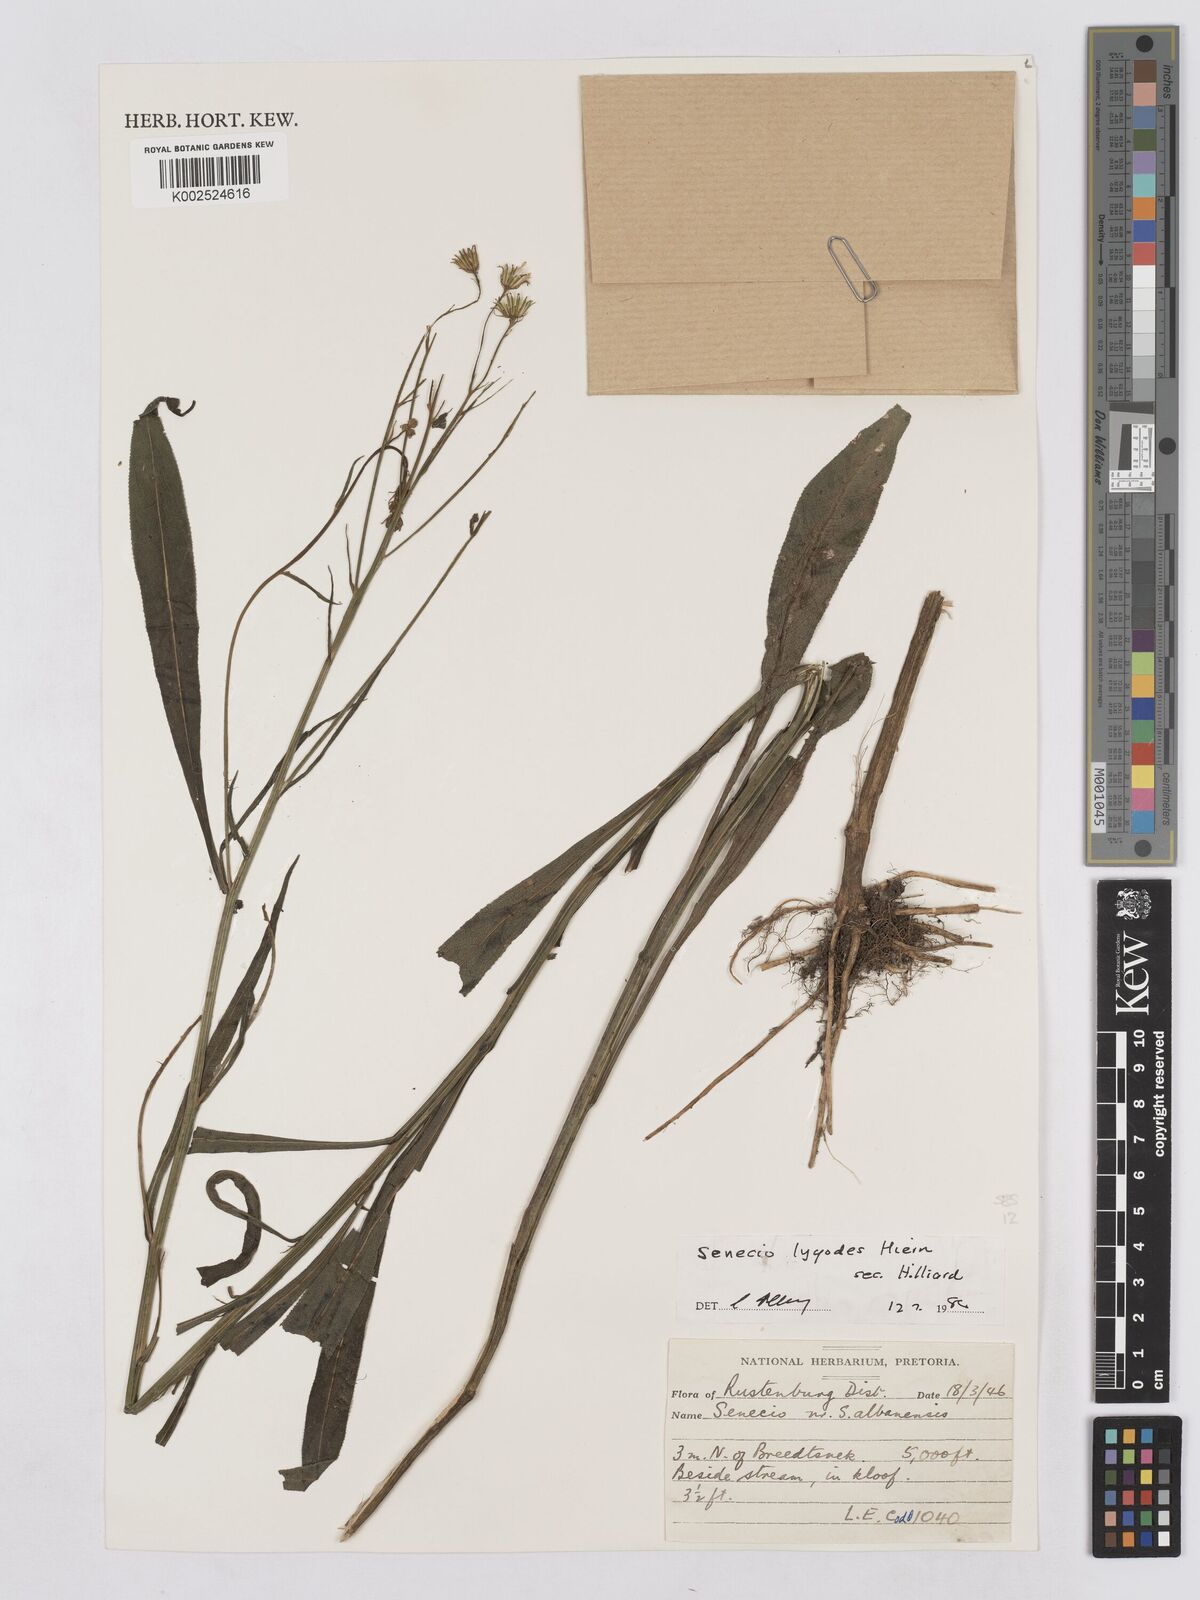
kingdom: Plantae
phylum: Tracheophyta
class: Magnoliopsida
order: Asterales
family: Asteraceae
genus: Senecio
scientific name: Senecio inornatus
